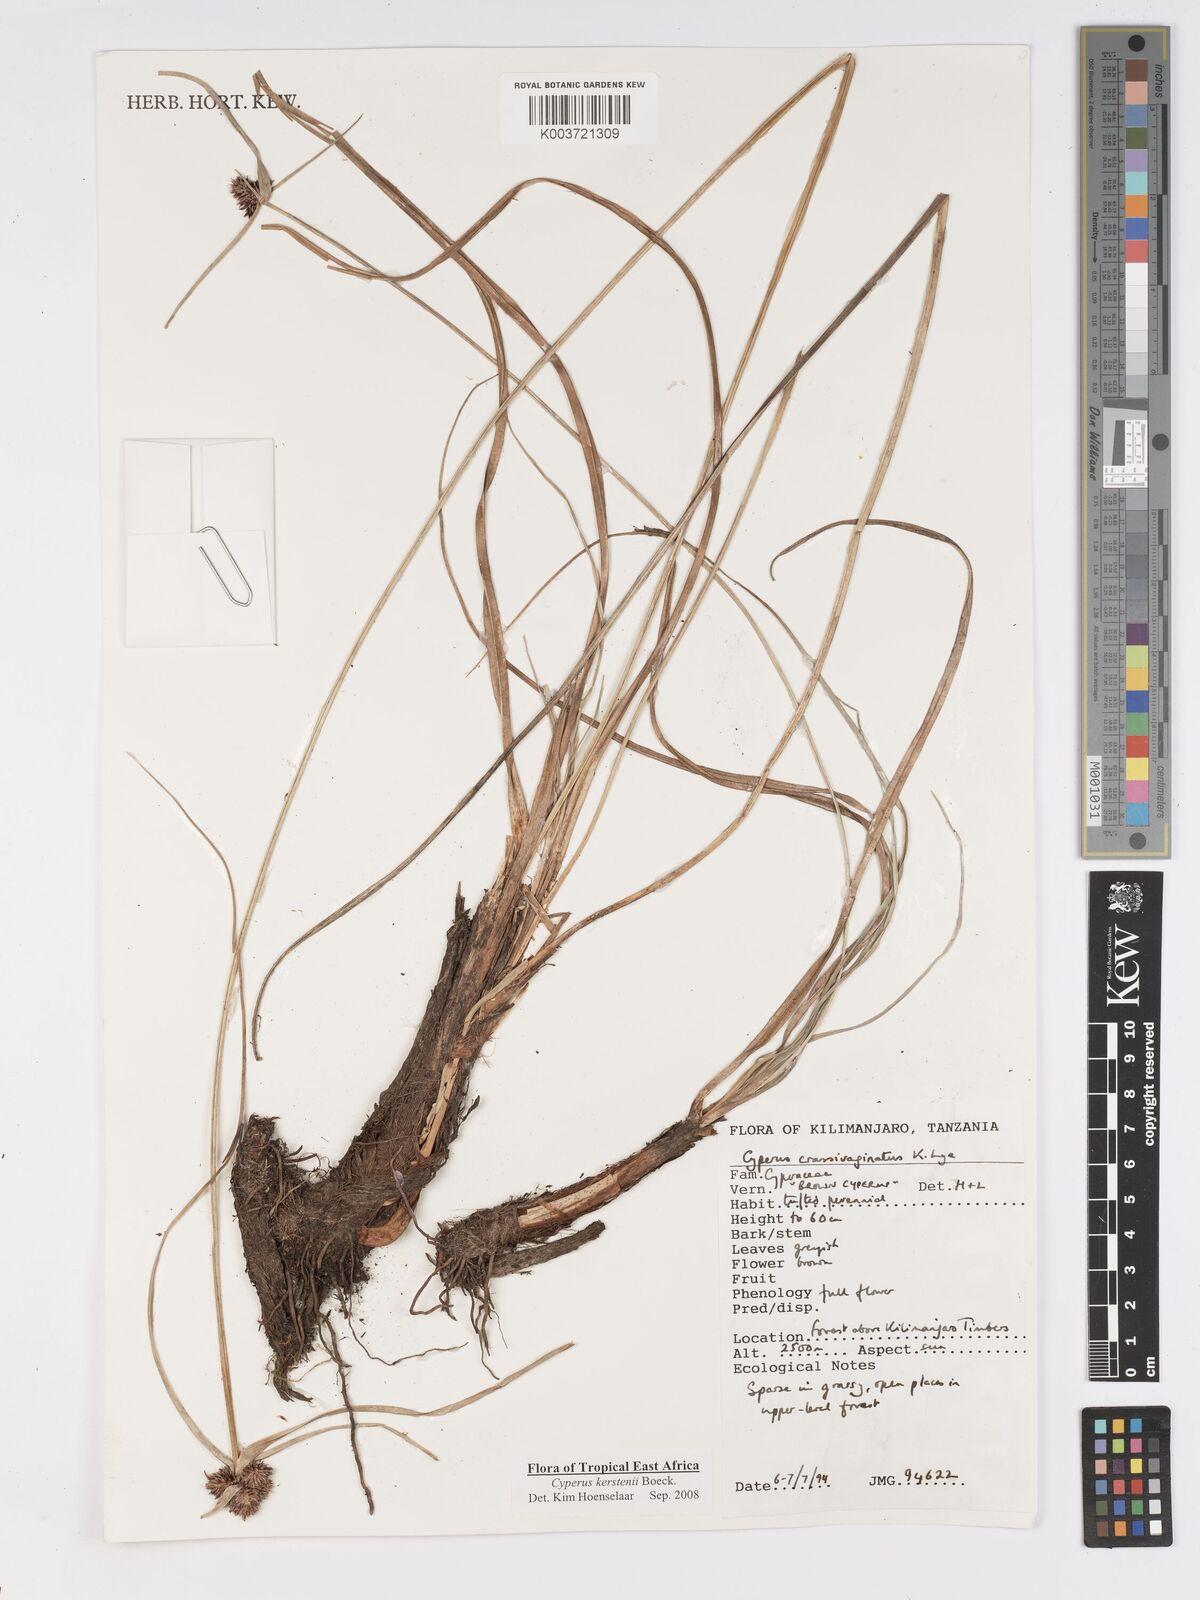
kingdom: Plantae
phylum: Tracheophyta
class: Liliopsida
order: Poales
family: Cyperaceae
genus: Cyperus
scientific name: Cyperus plateilema
